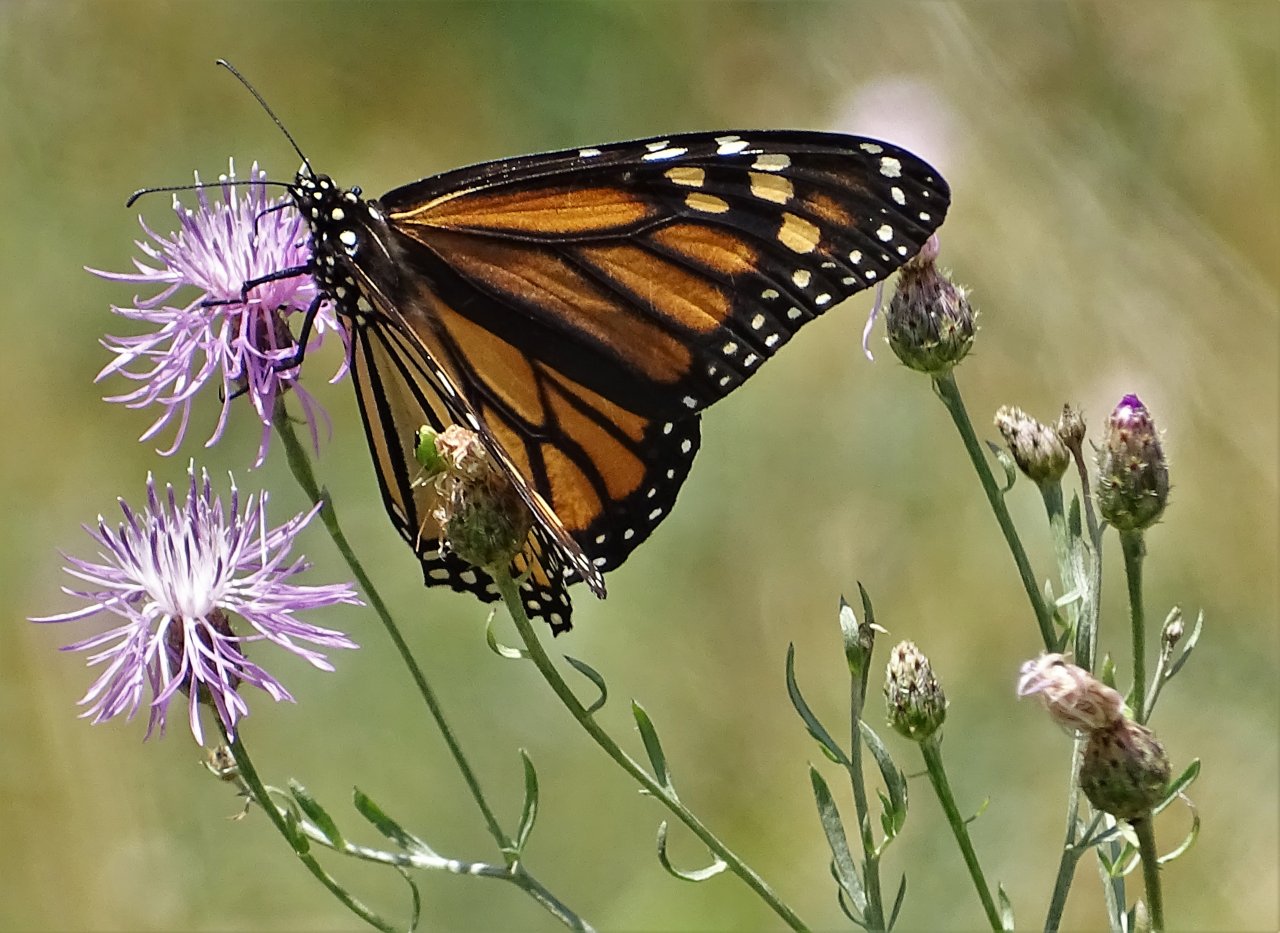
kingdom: Animalia
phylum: Arthropoda
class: Insecta
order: Lepidoptera
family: Nymphalidae
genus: Danaus
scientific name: Danaus plexippus
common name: Monarch
